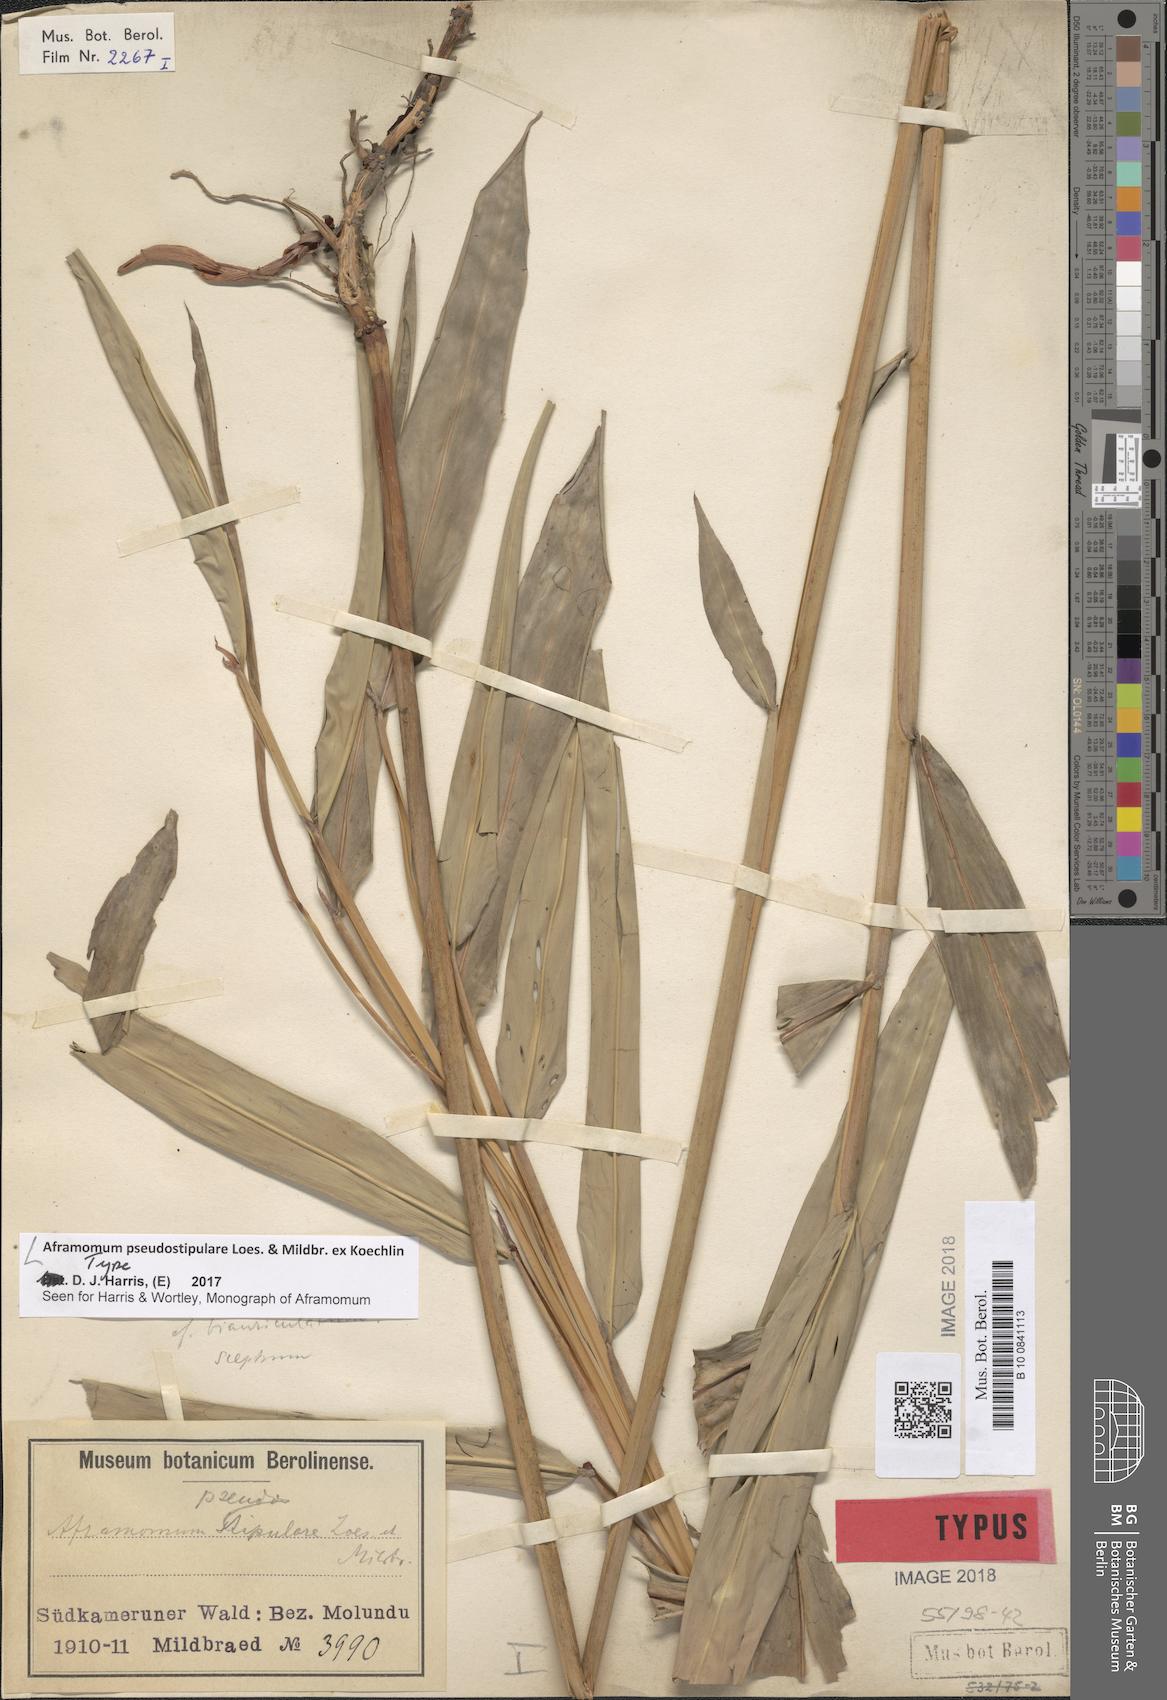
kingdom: Plantae
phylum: Tracheophyta
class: Liliopsida
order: Zingiberales
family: Zingiberaceae
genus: Aframomum
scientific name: Aframomum pseudostipulare
